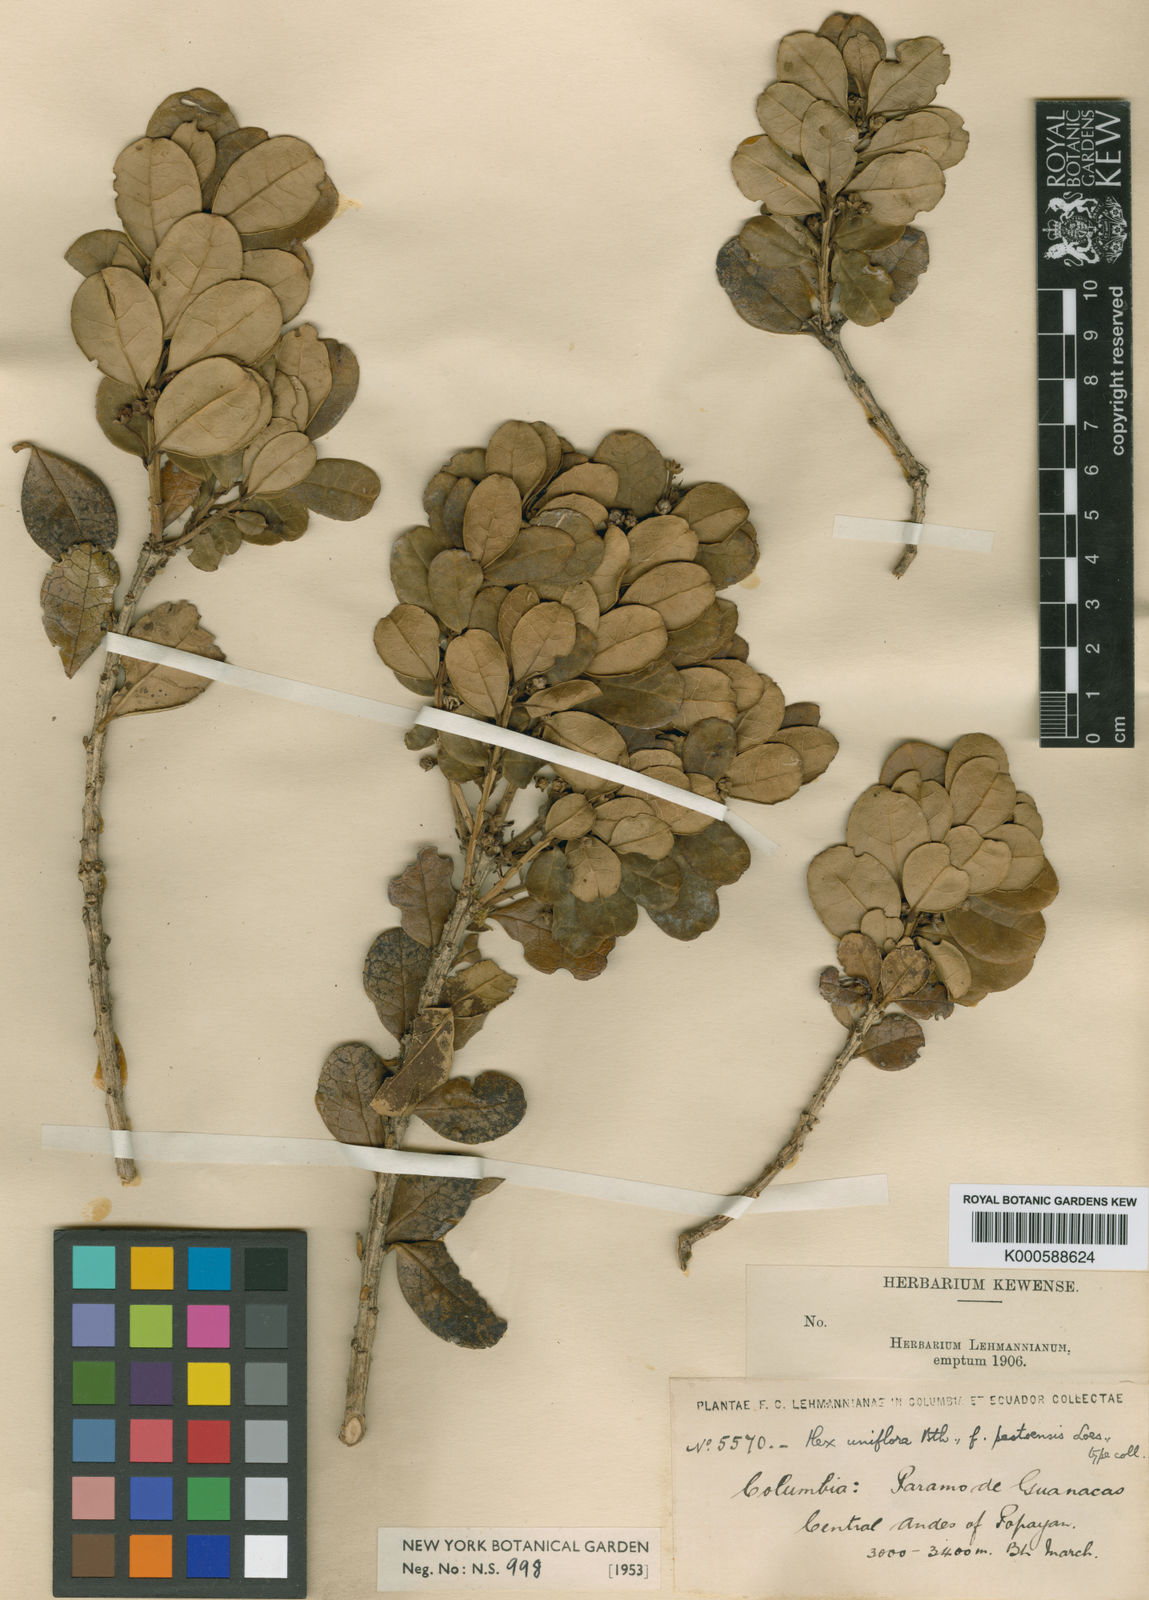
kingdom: Plantae
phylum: Tracheophyta
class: Magnoliopsida
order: Aquifoliales
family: Aquifoliaceae
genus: Ilex
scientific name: Ilex uniflora
